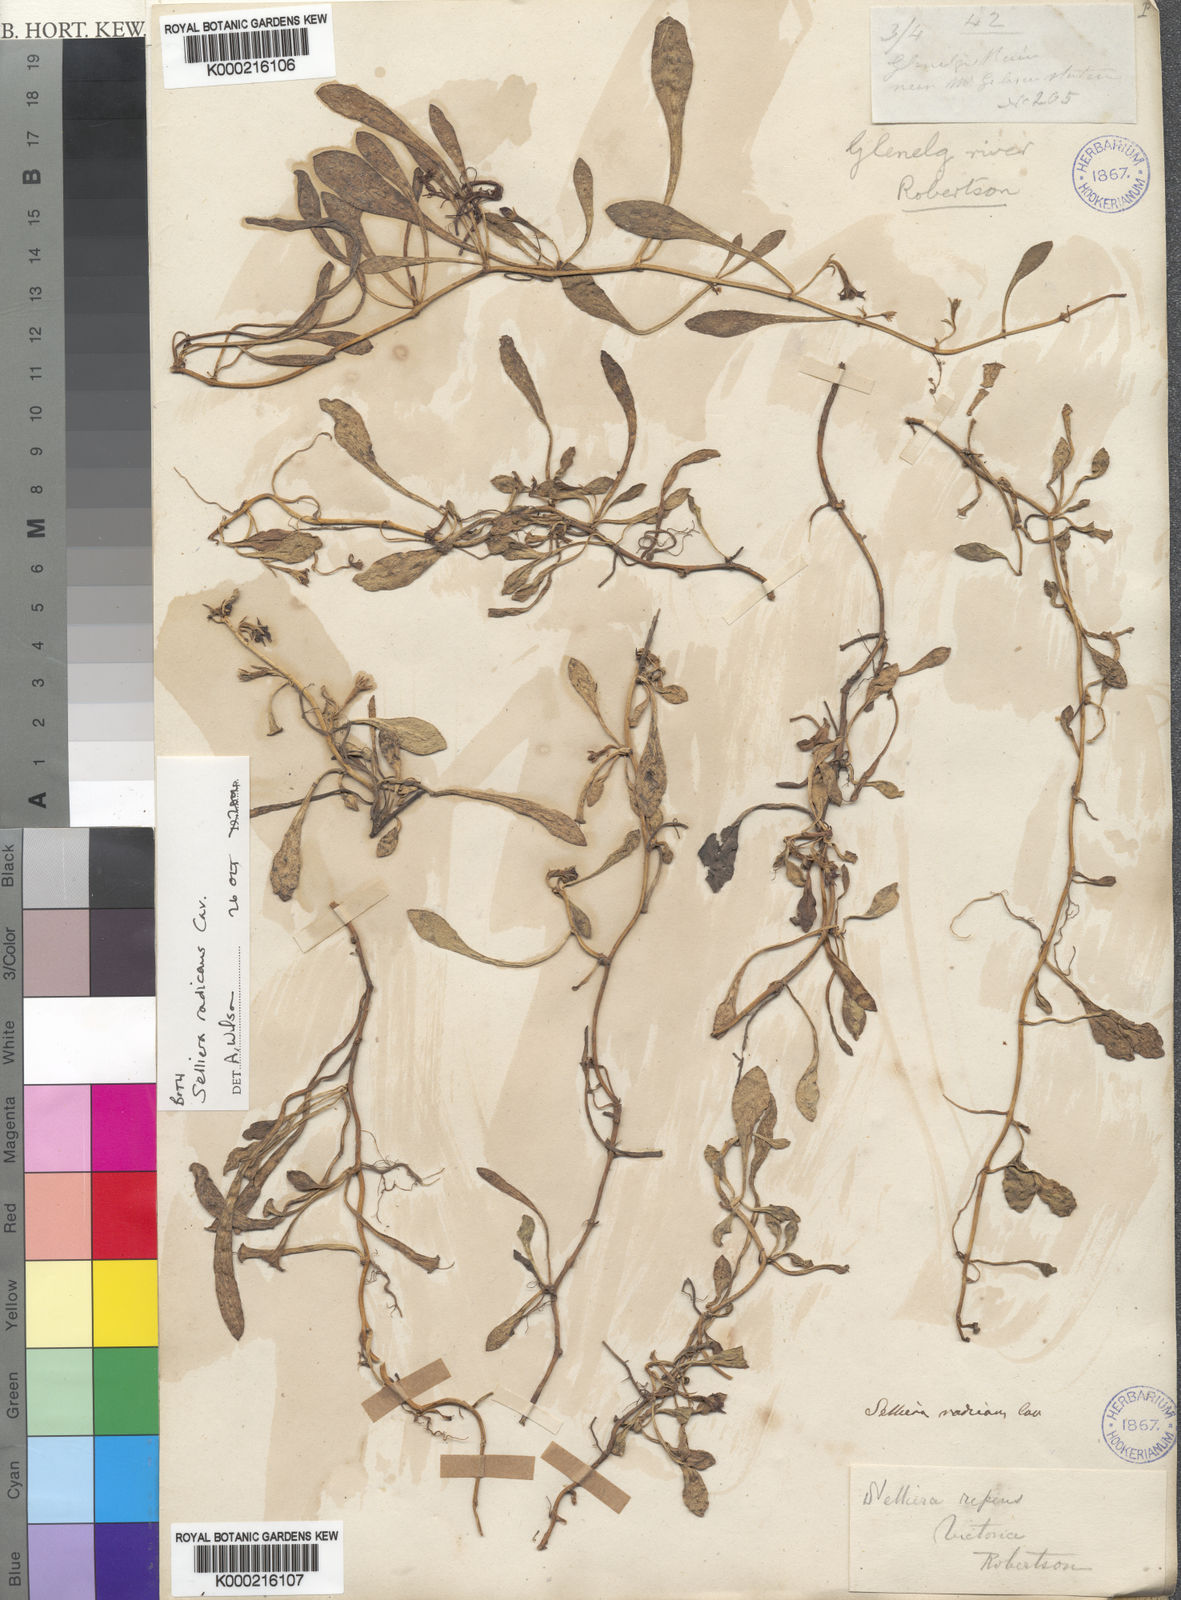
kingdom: Plantae
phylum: Tracheophyta
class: Magnoliopsida
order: Asterales
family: Goodeniaceae
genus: Goodenia
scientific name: Goodenia radicans
